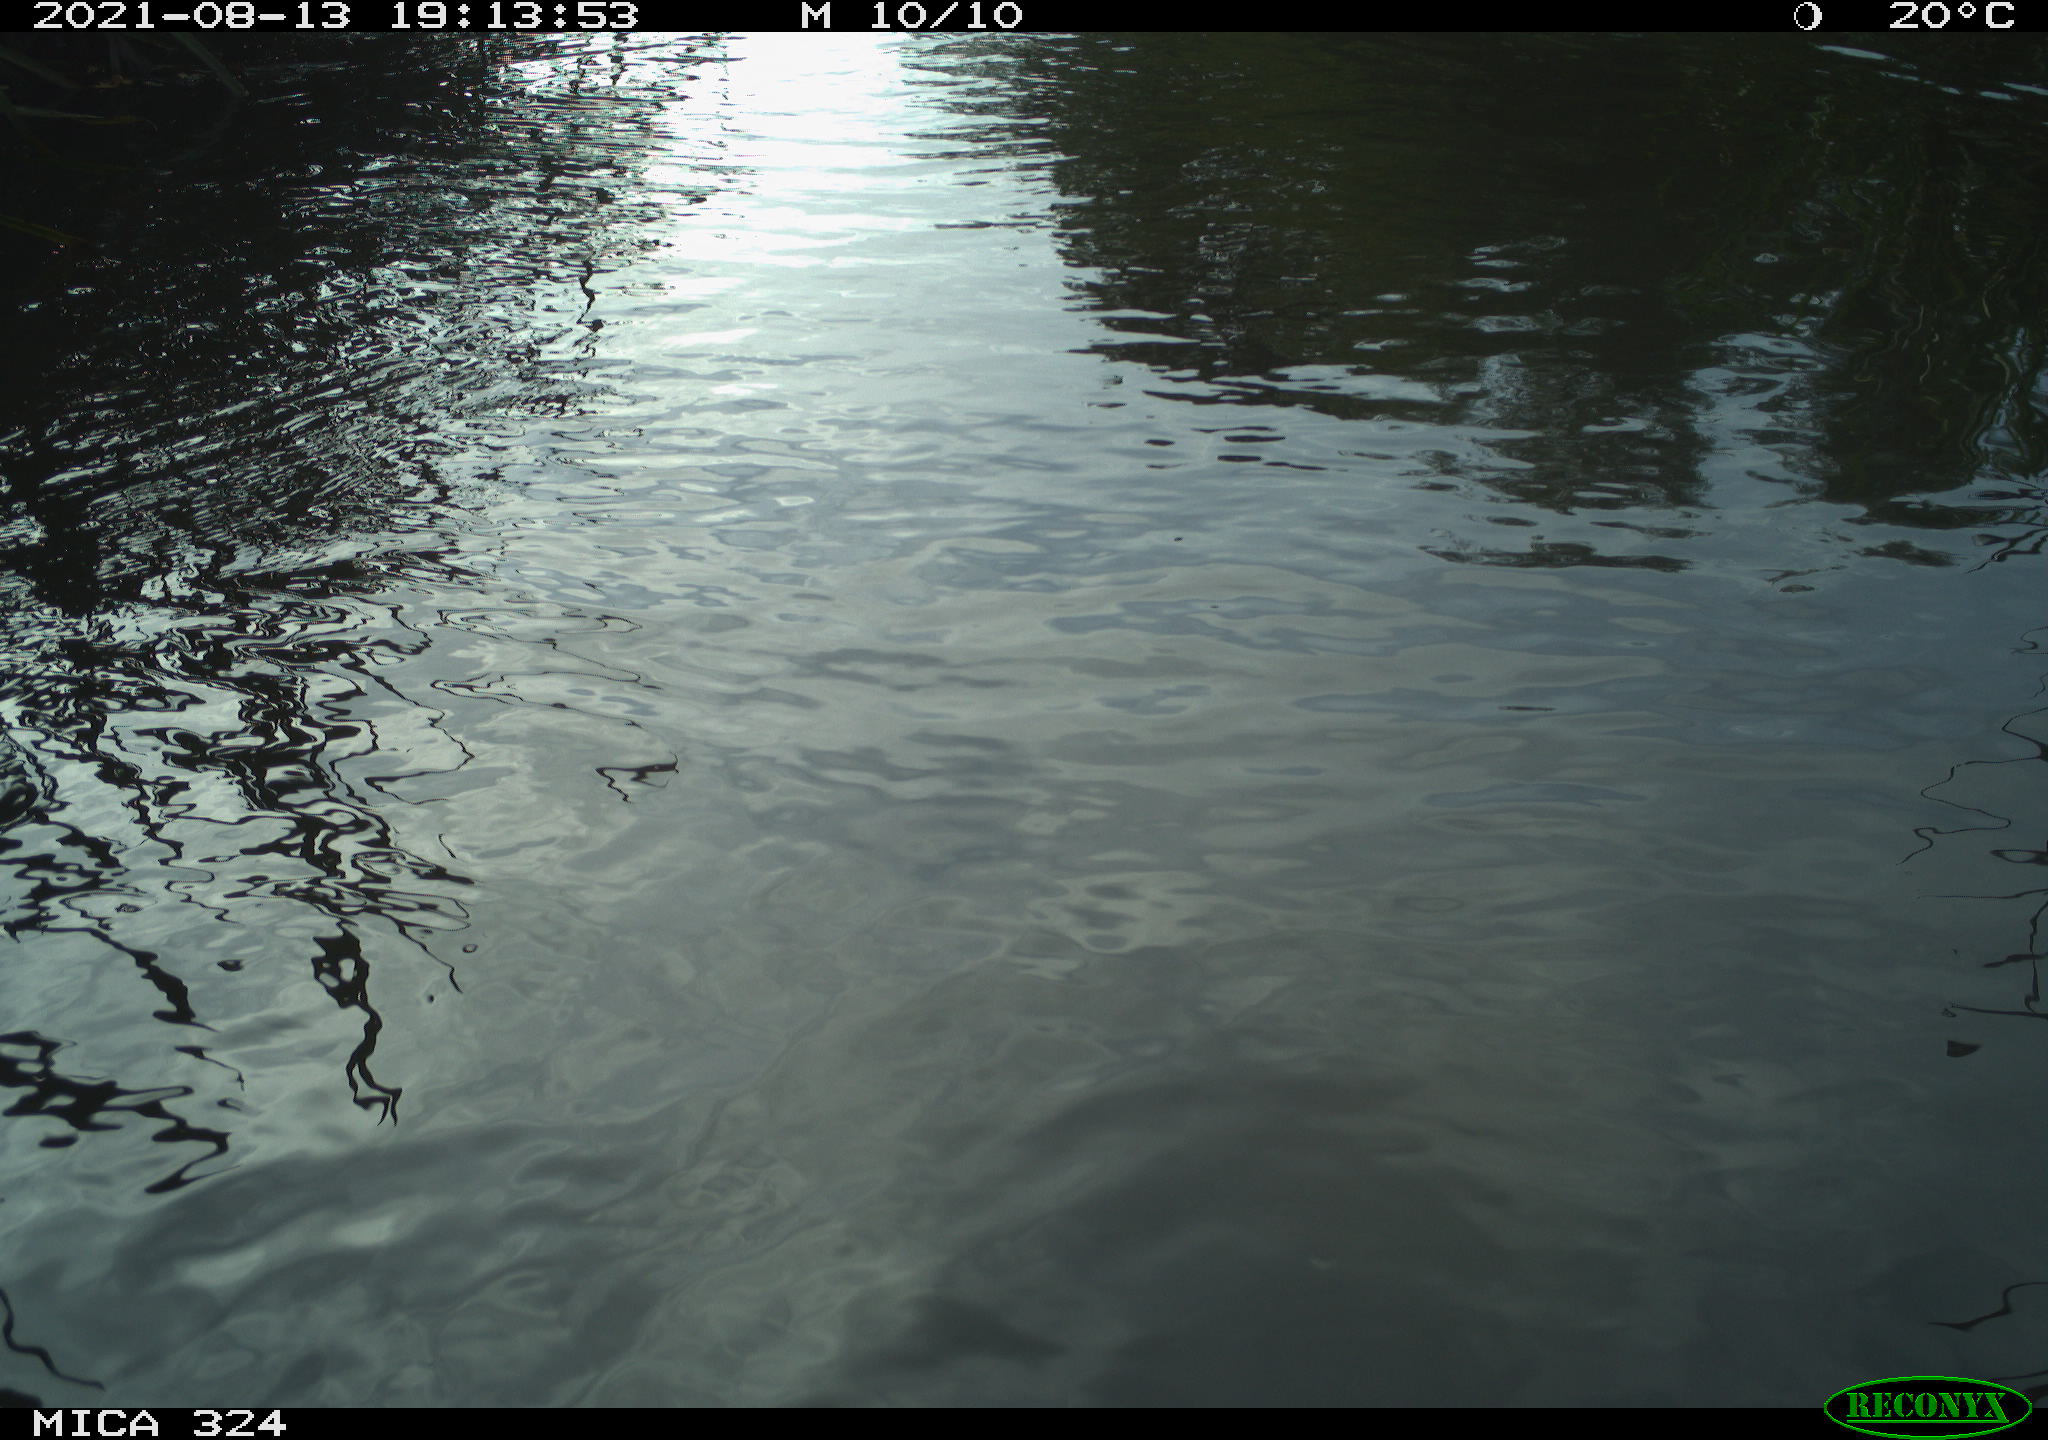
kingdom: Animalia
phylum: Chordata
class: Mammalia
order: Rodentia
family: Cricetidae
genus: Ondatra
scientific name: Ondatra zibethicus
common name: Muskrat
